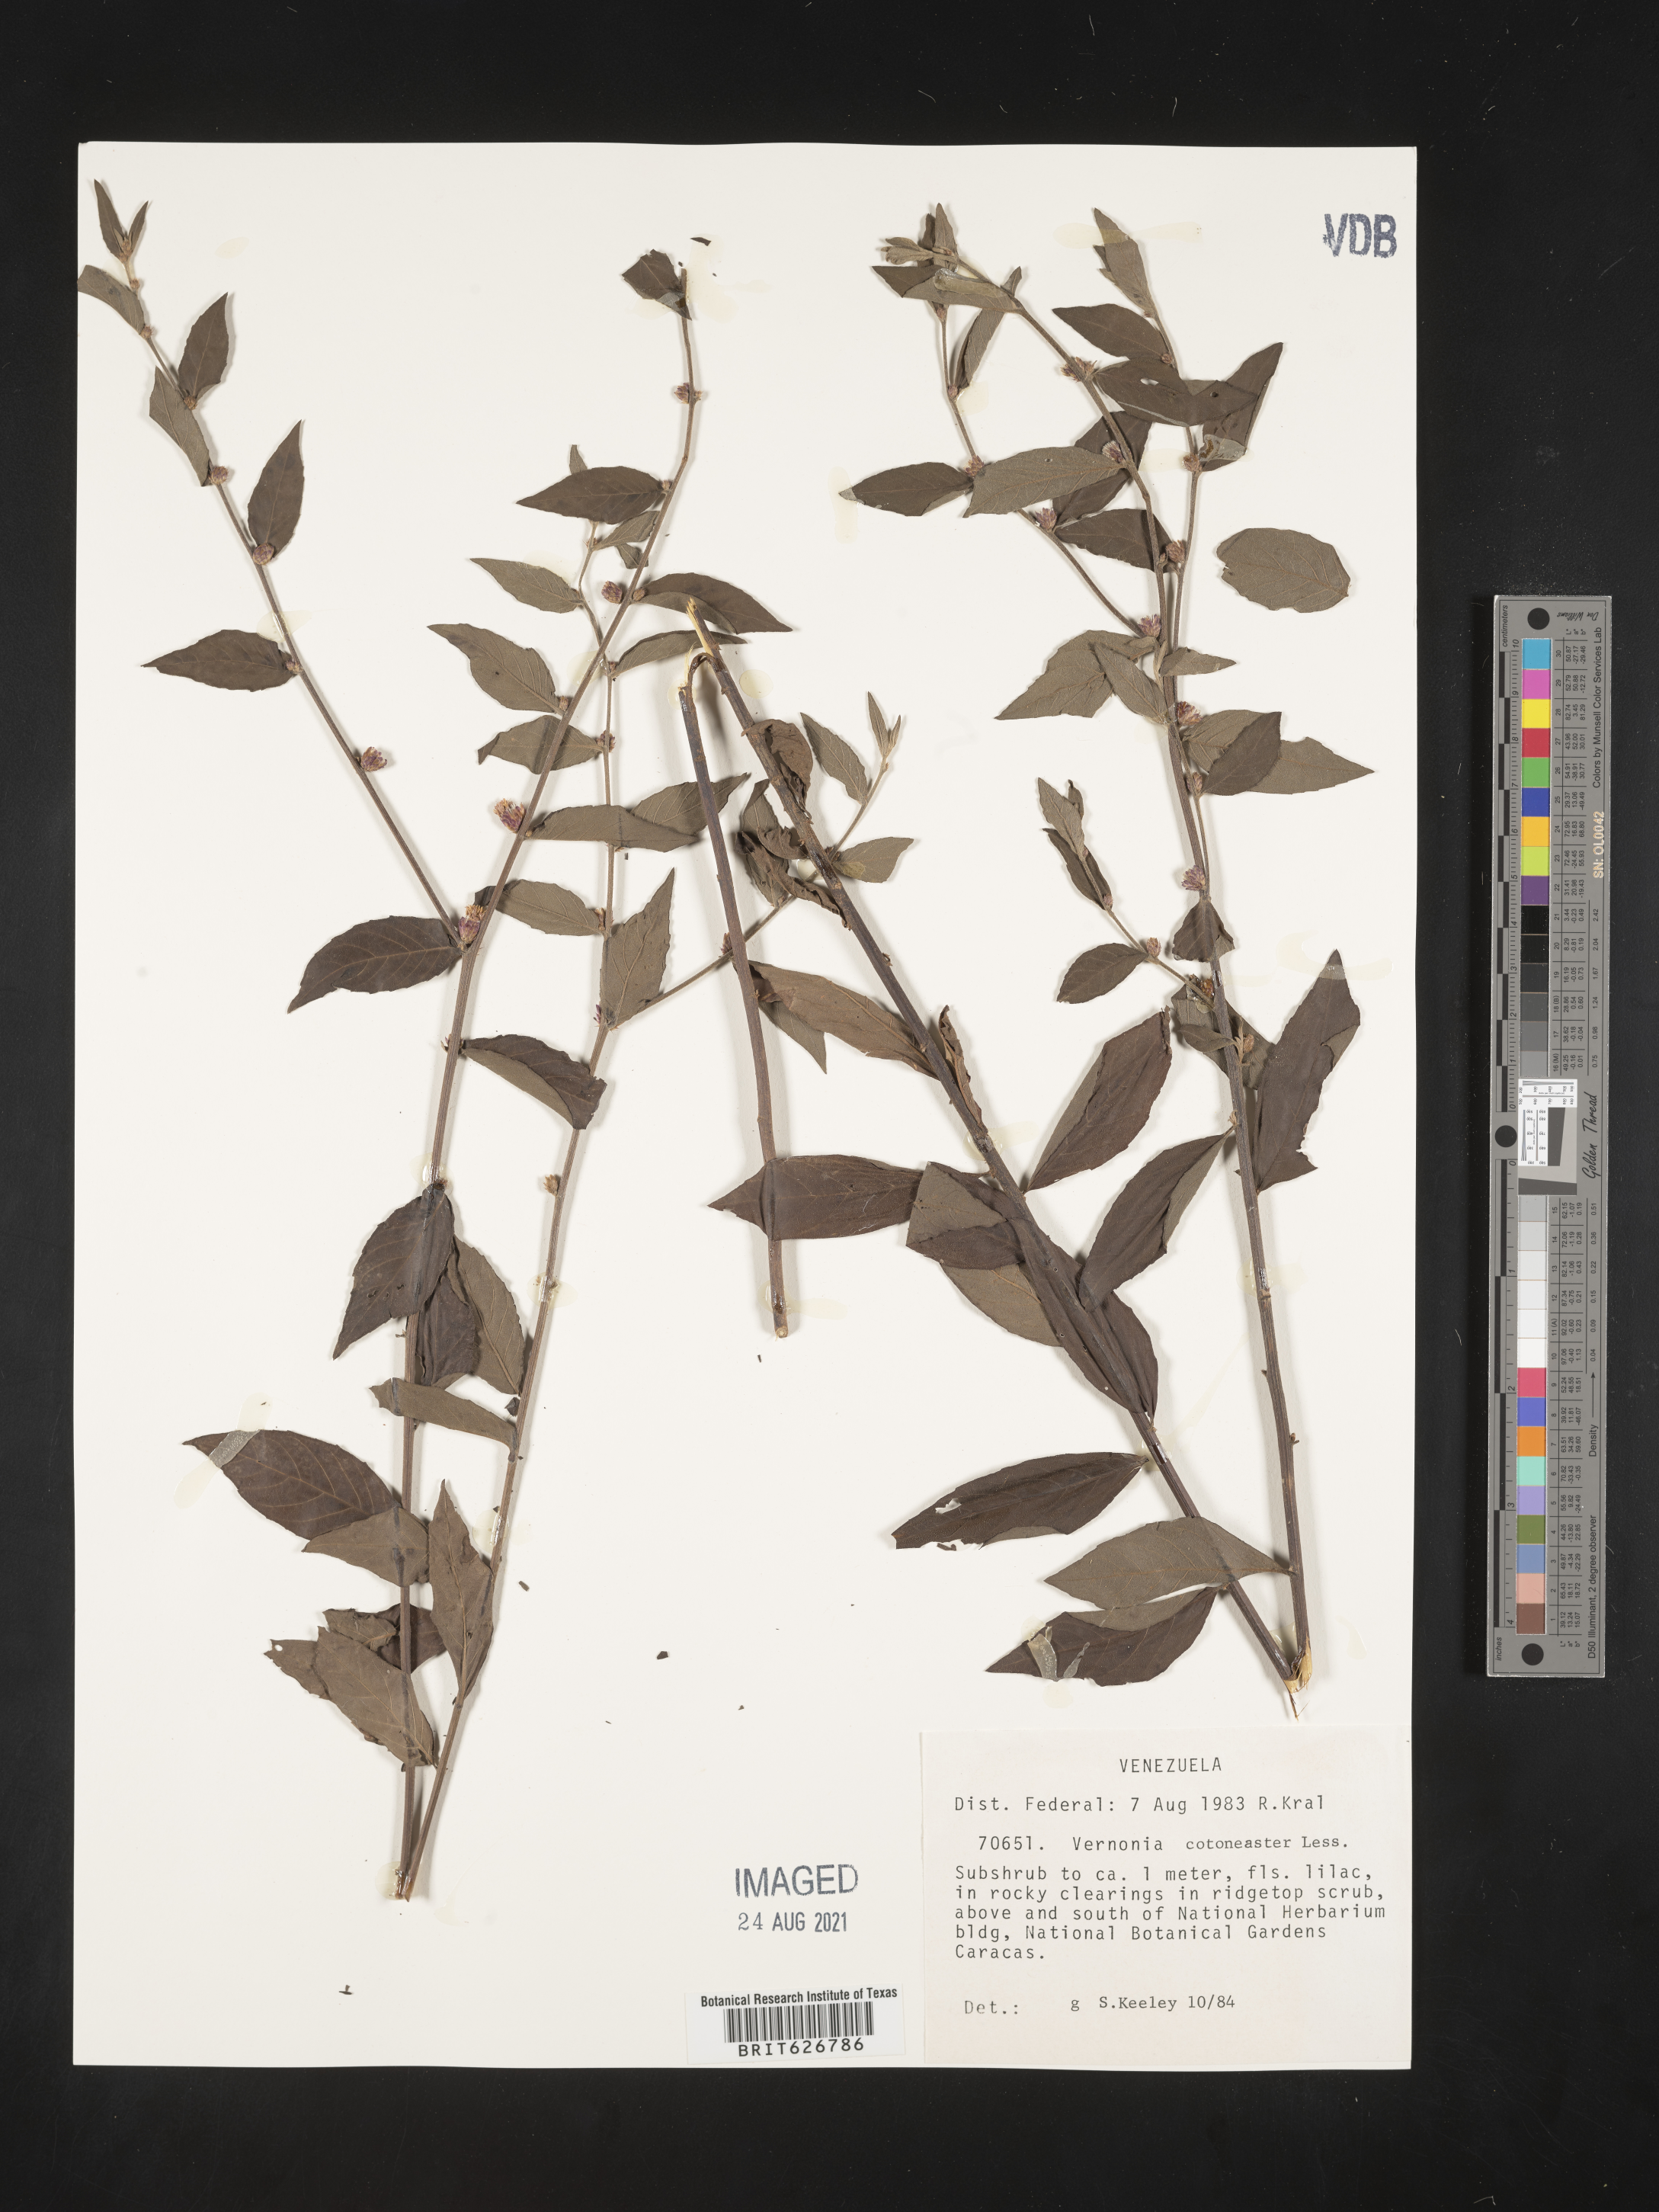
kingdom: Plantae
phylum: Tracheophyta
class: Magnoliopsida
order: Asterales
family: Asteraceae
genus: Lepidaploa
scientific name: Lepidaploa cotoneaster
